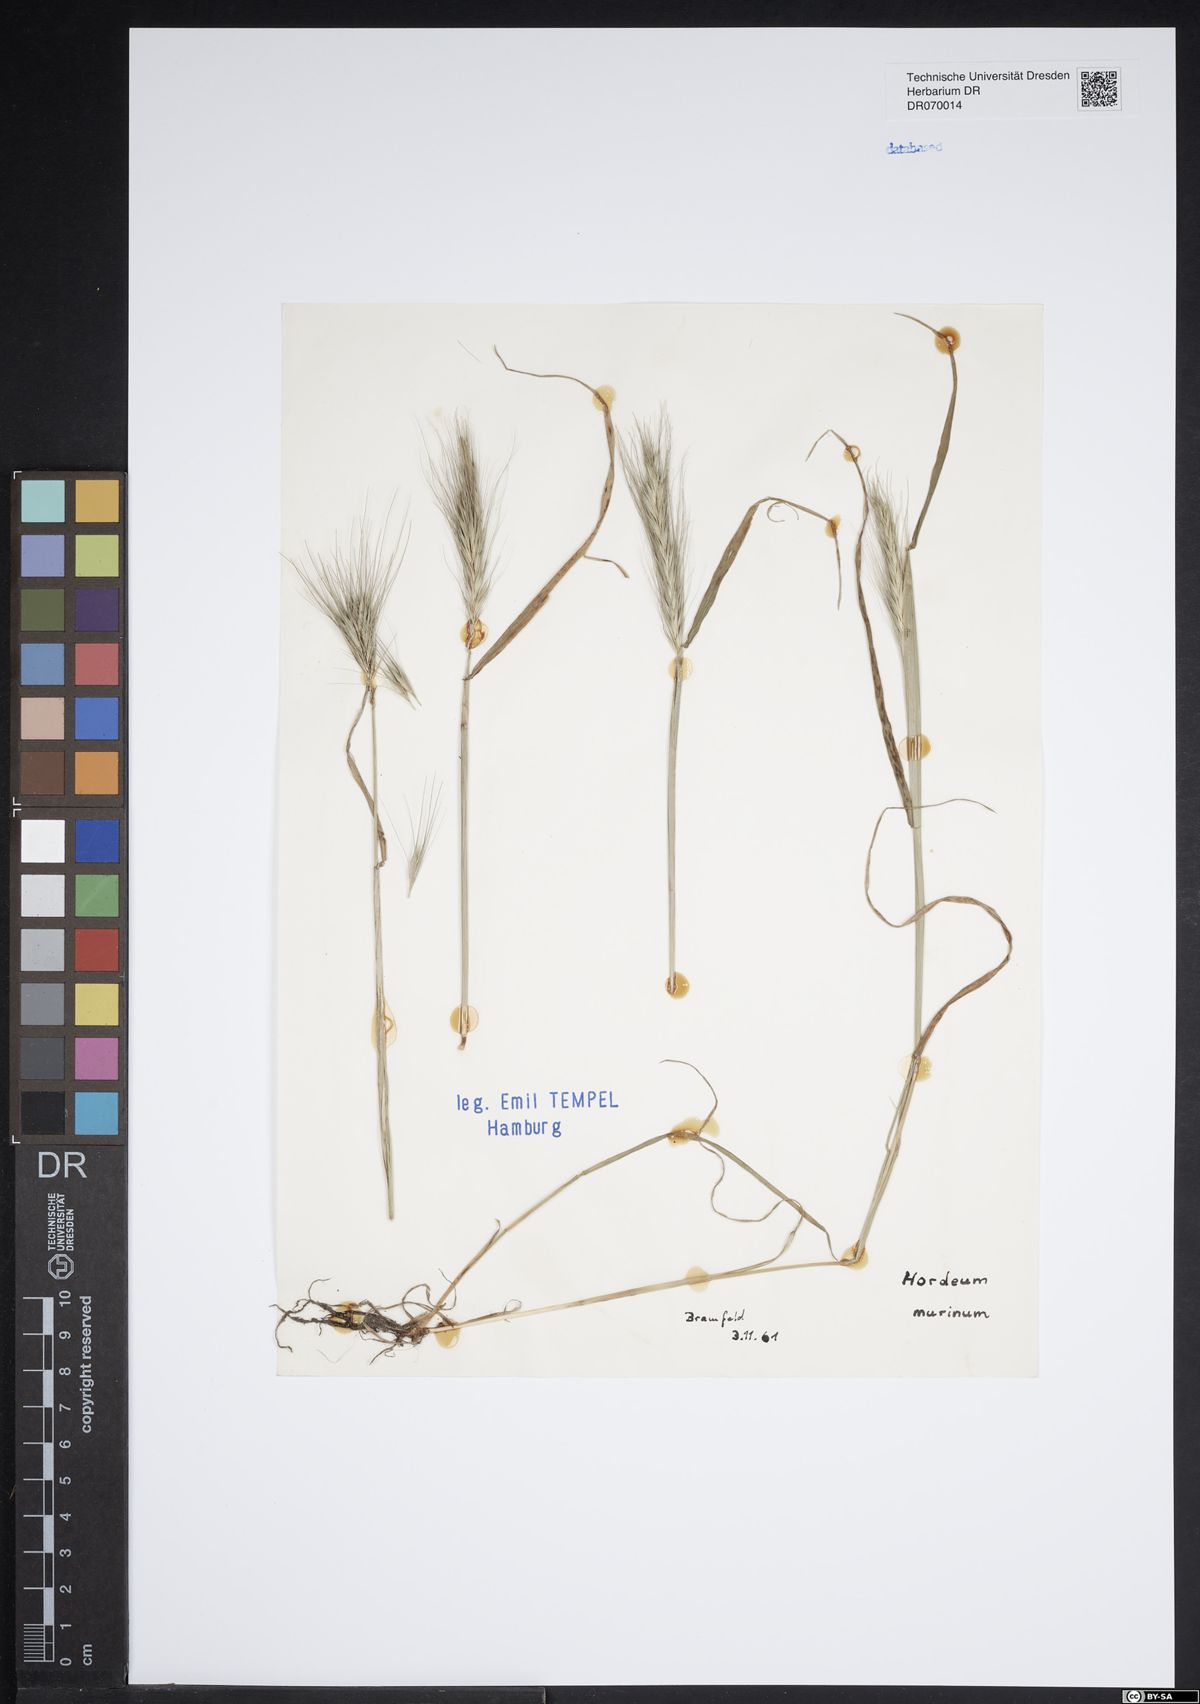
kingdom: Plantae
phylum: Tracheophyta
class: Liliopsida
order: Poales
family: Poaceae
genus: Hordeum
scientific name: Hordeum murinum
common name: Wall barley
